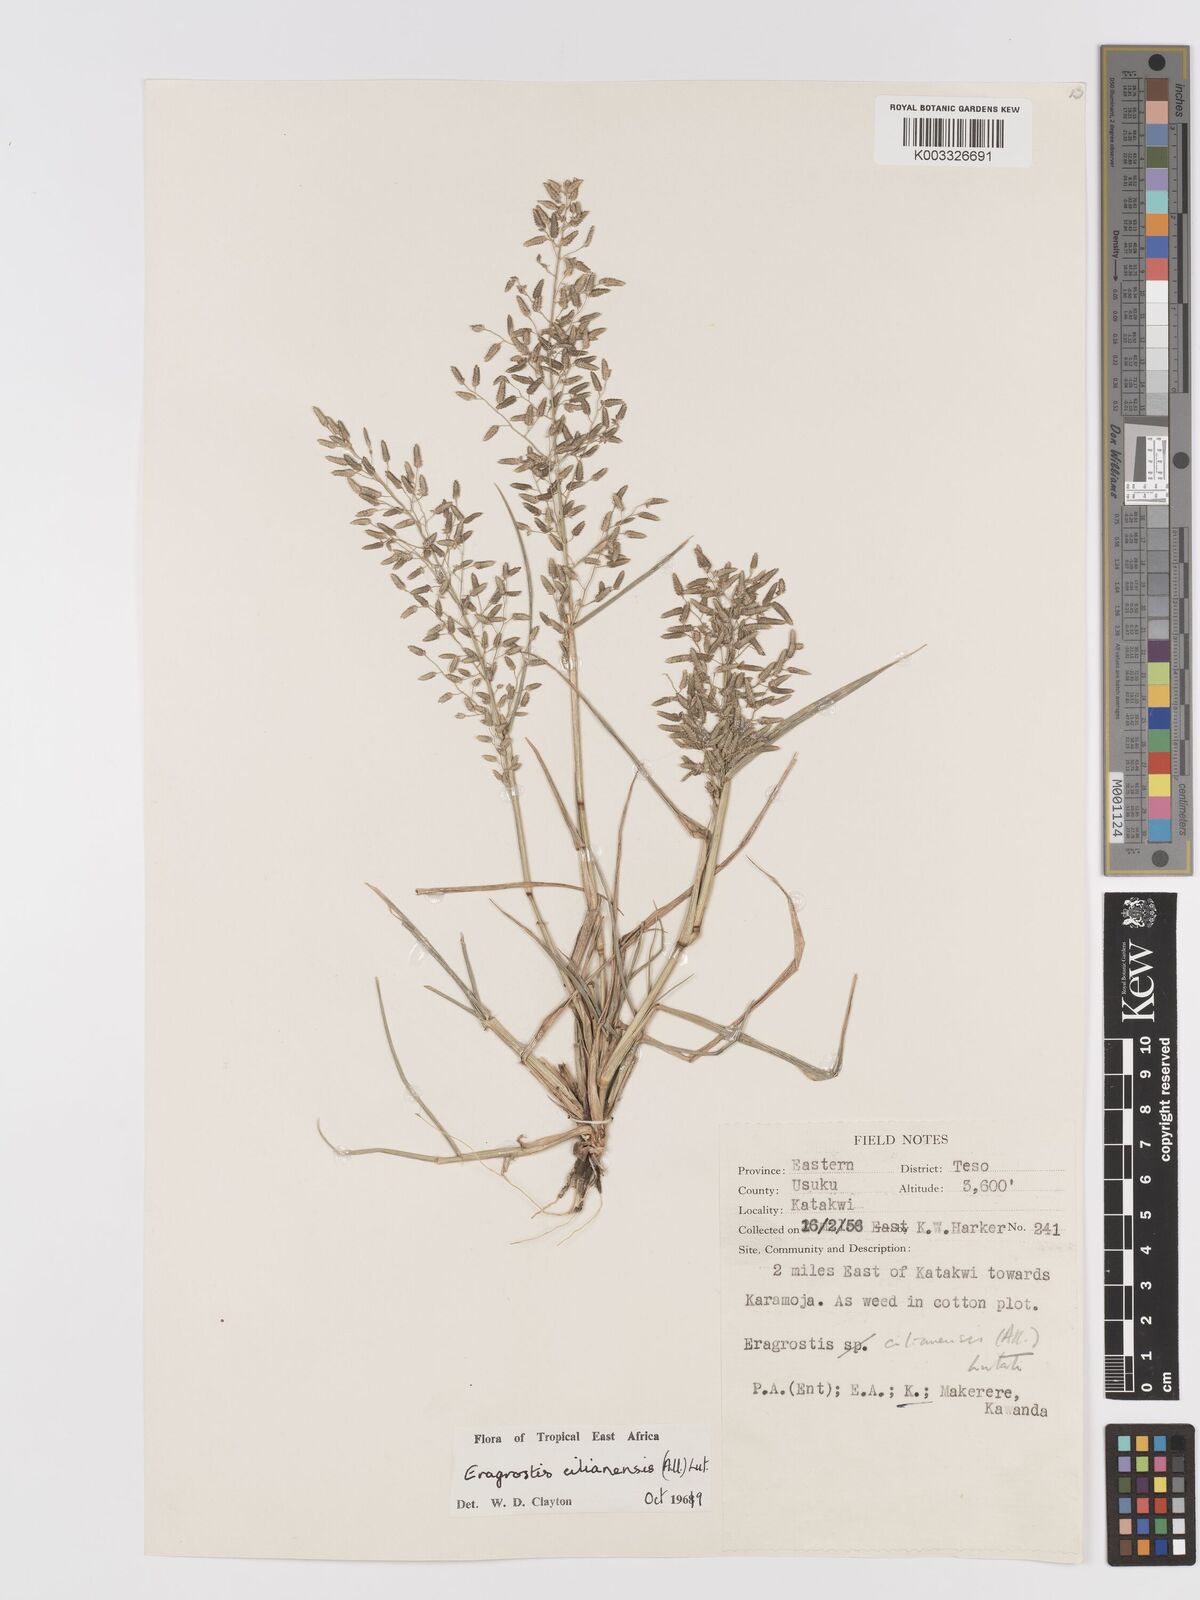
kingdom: Plantae
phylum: Tracheophyta
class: Liliopsida
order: Poales
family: Poaceae
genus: Eragrostis
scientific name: Eragrostis cilianensis
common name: Stinkgrass
